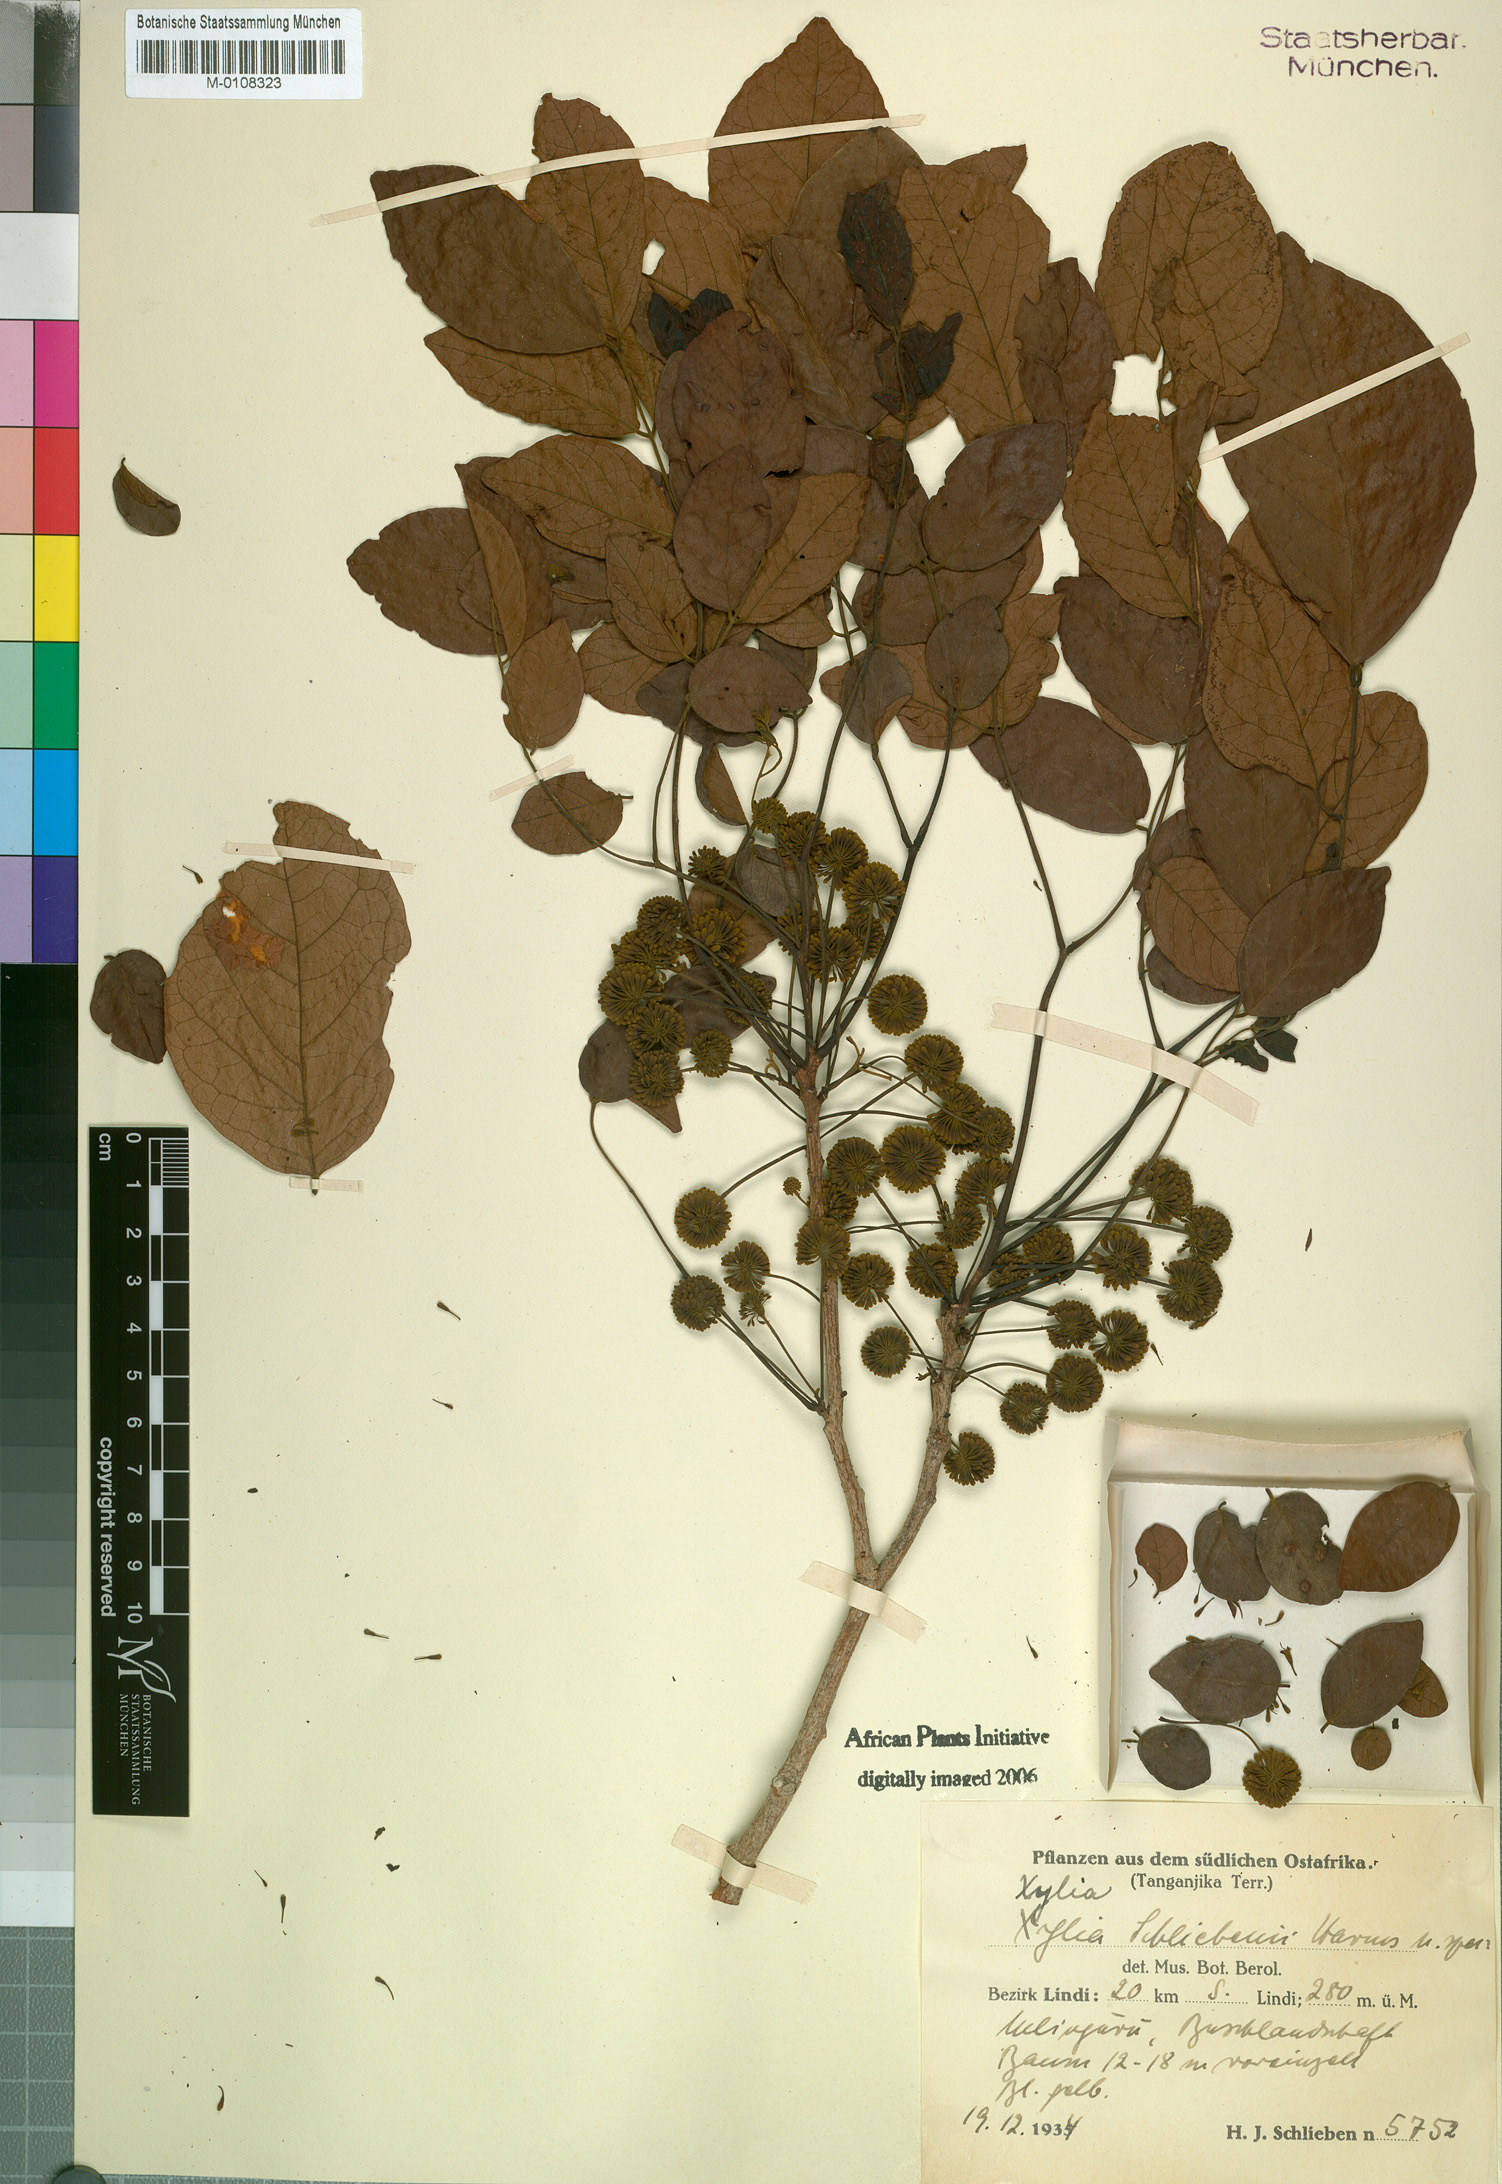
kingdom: Plantae
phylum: Tracheophyta
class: Magnoliopsida
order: Fabales
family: Fabaceae
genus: Xylia
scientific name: Xylia schliebenii
